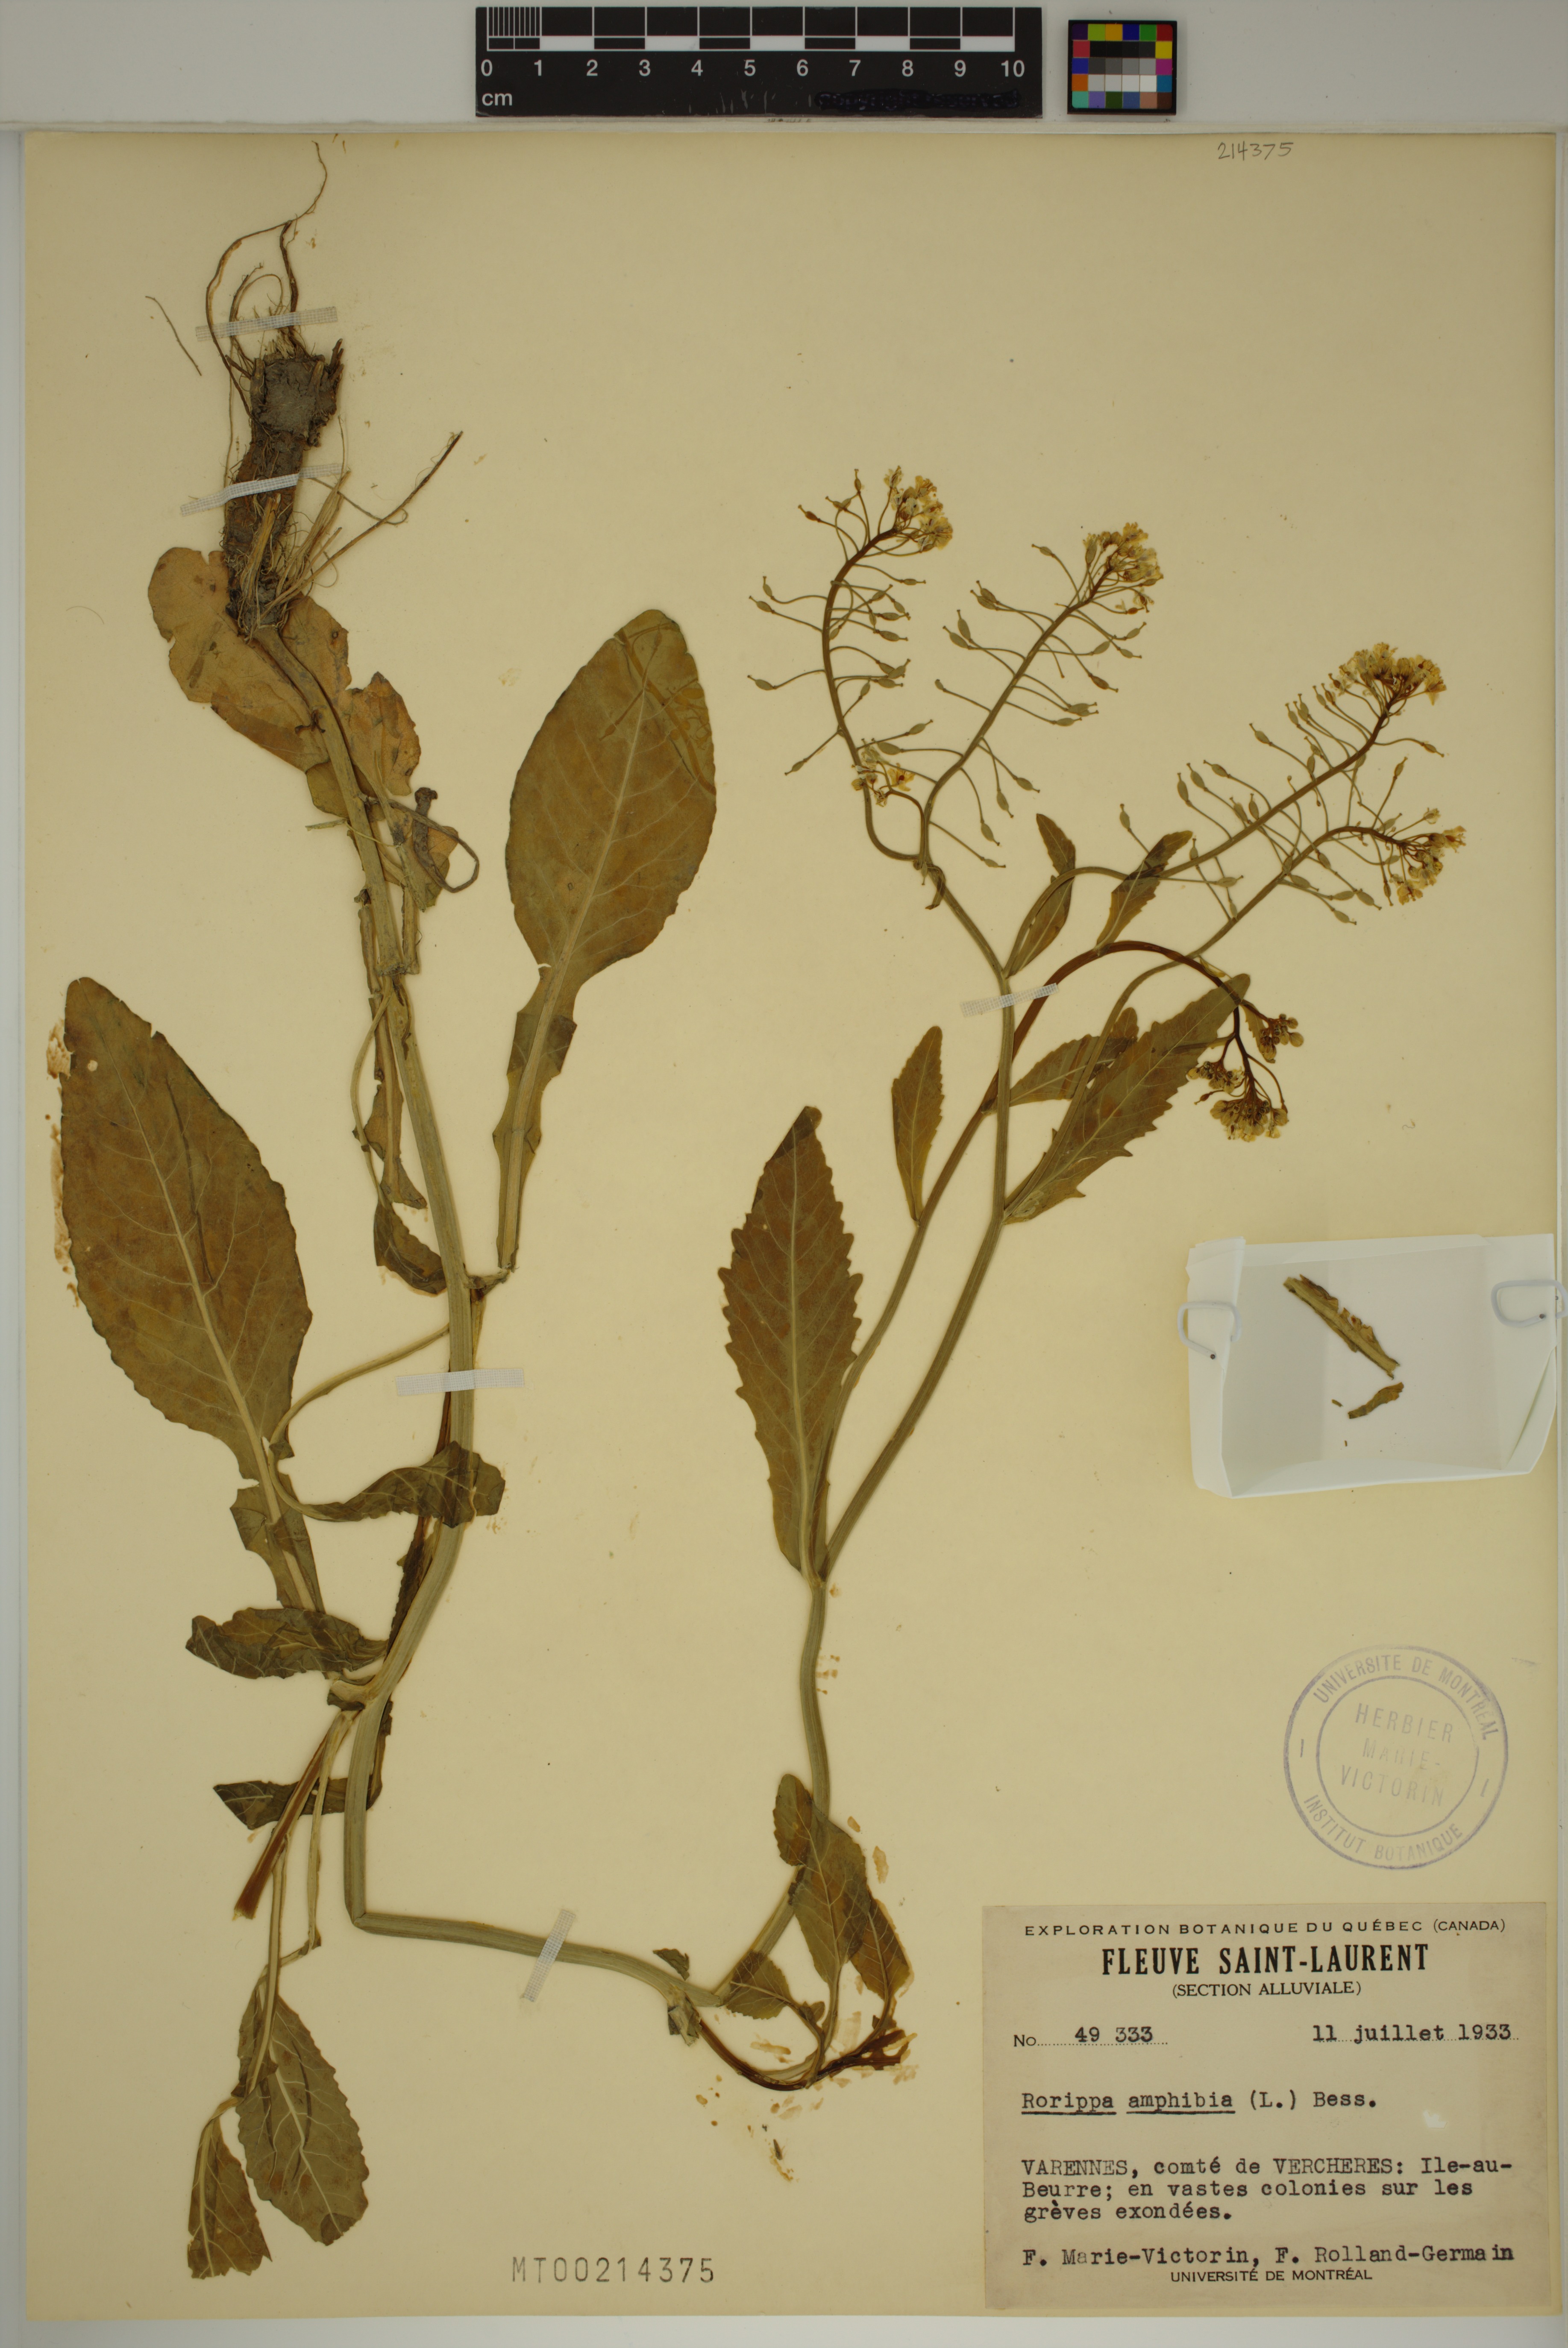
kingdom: Plantae
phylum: Tracheophyta
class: Magnoliopsida
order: Brassicales
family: Brassicaceae
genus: Rorippa
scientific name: Rorippa amphibia
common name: Great yellow-cress
